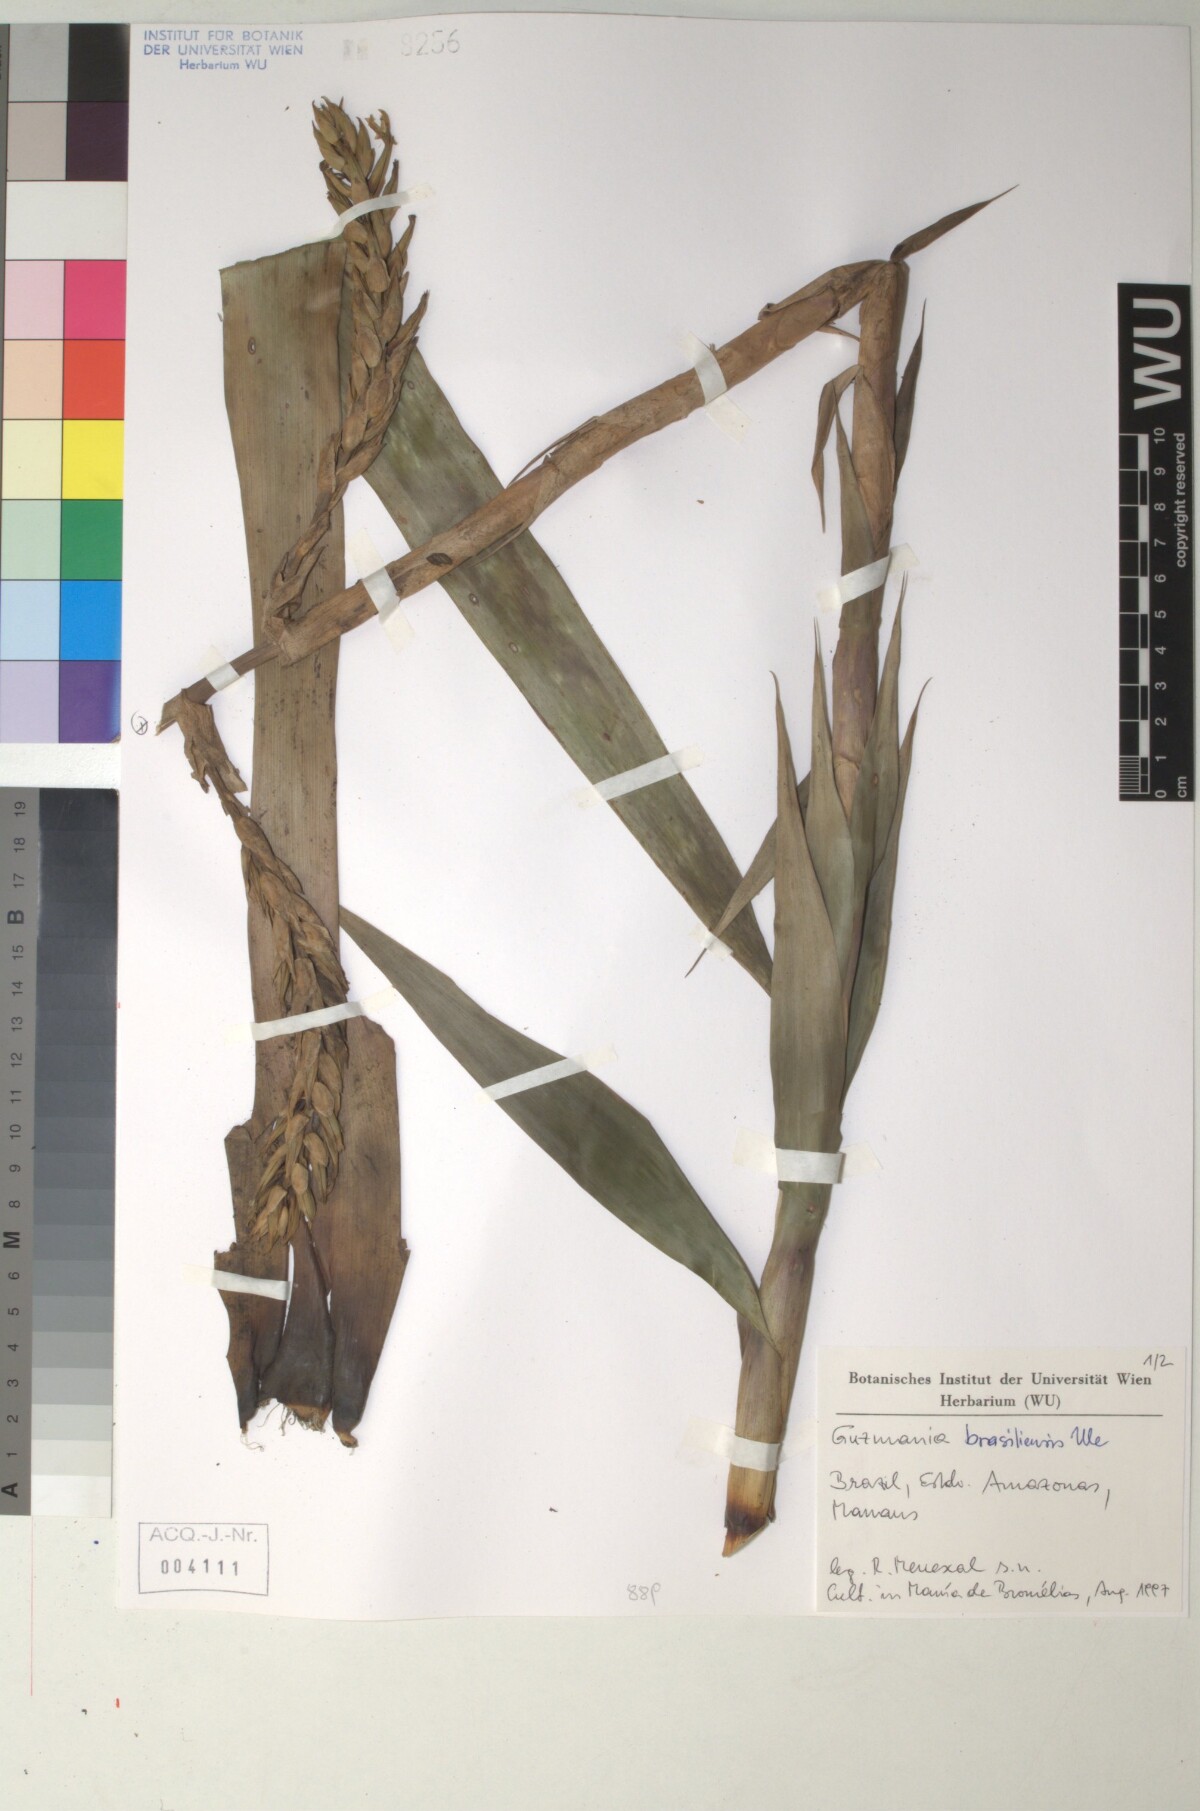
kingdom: Plantae
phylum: Tracheophyta
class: Liliopsida
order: Poales
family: Bromeliaceae
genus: Guzmania
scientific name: Guzmania brasiliensis
